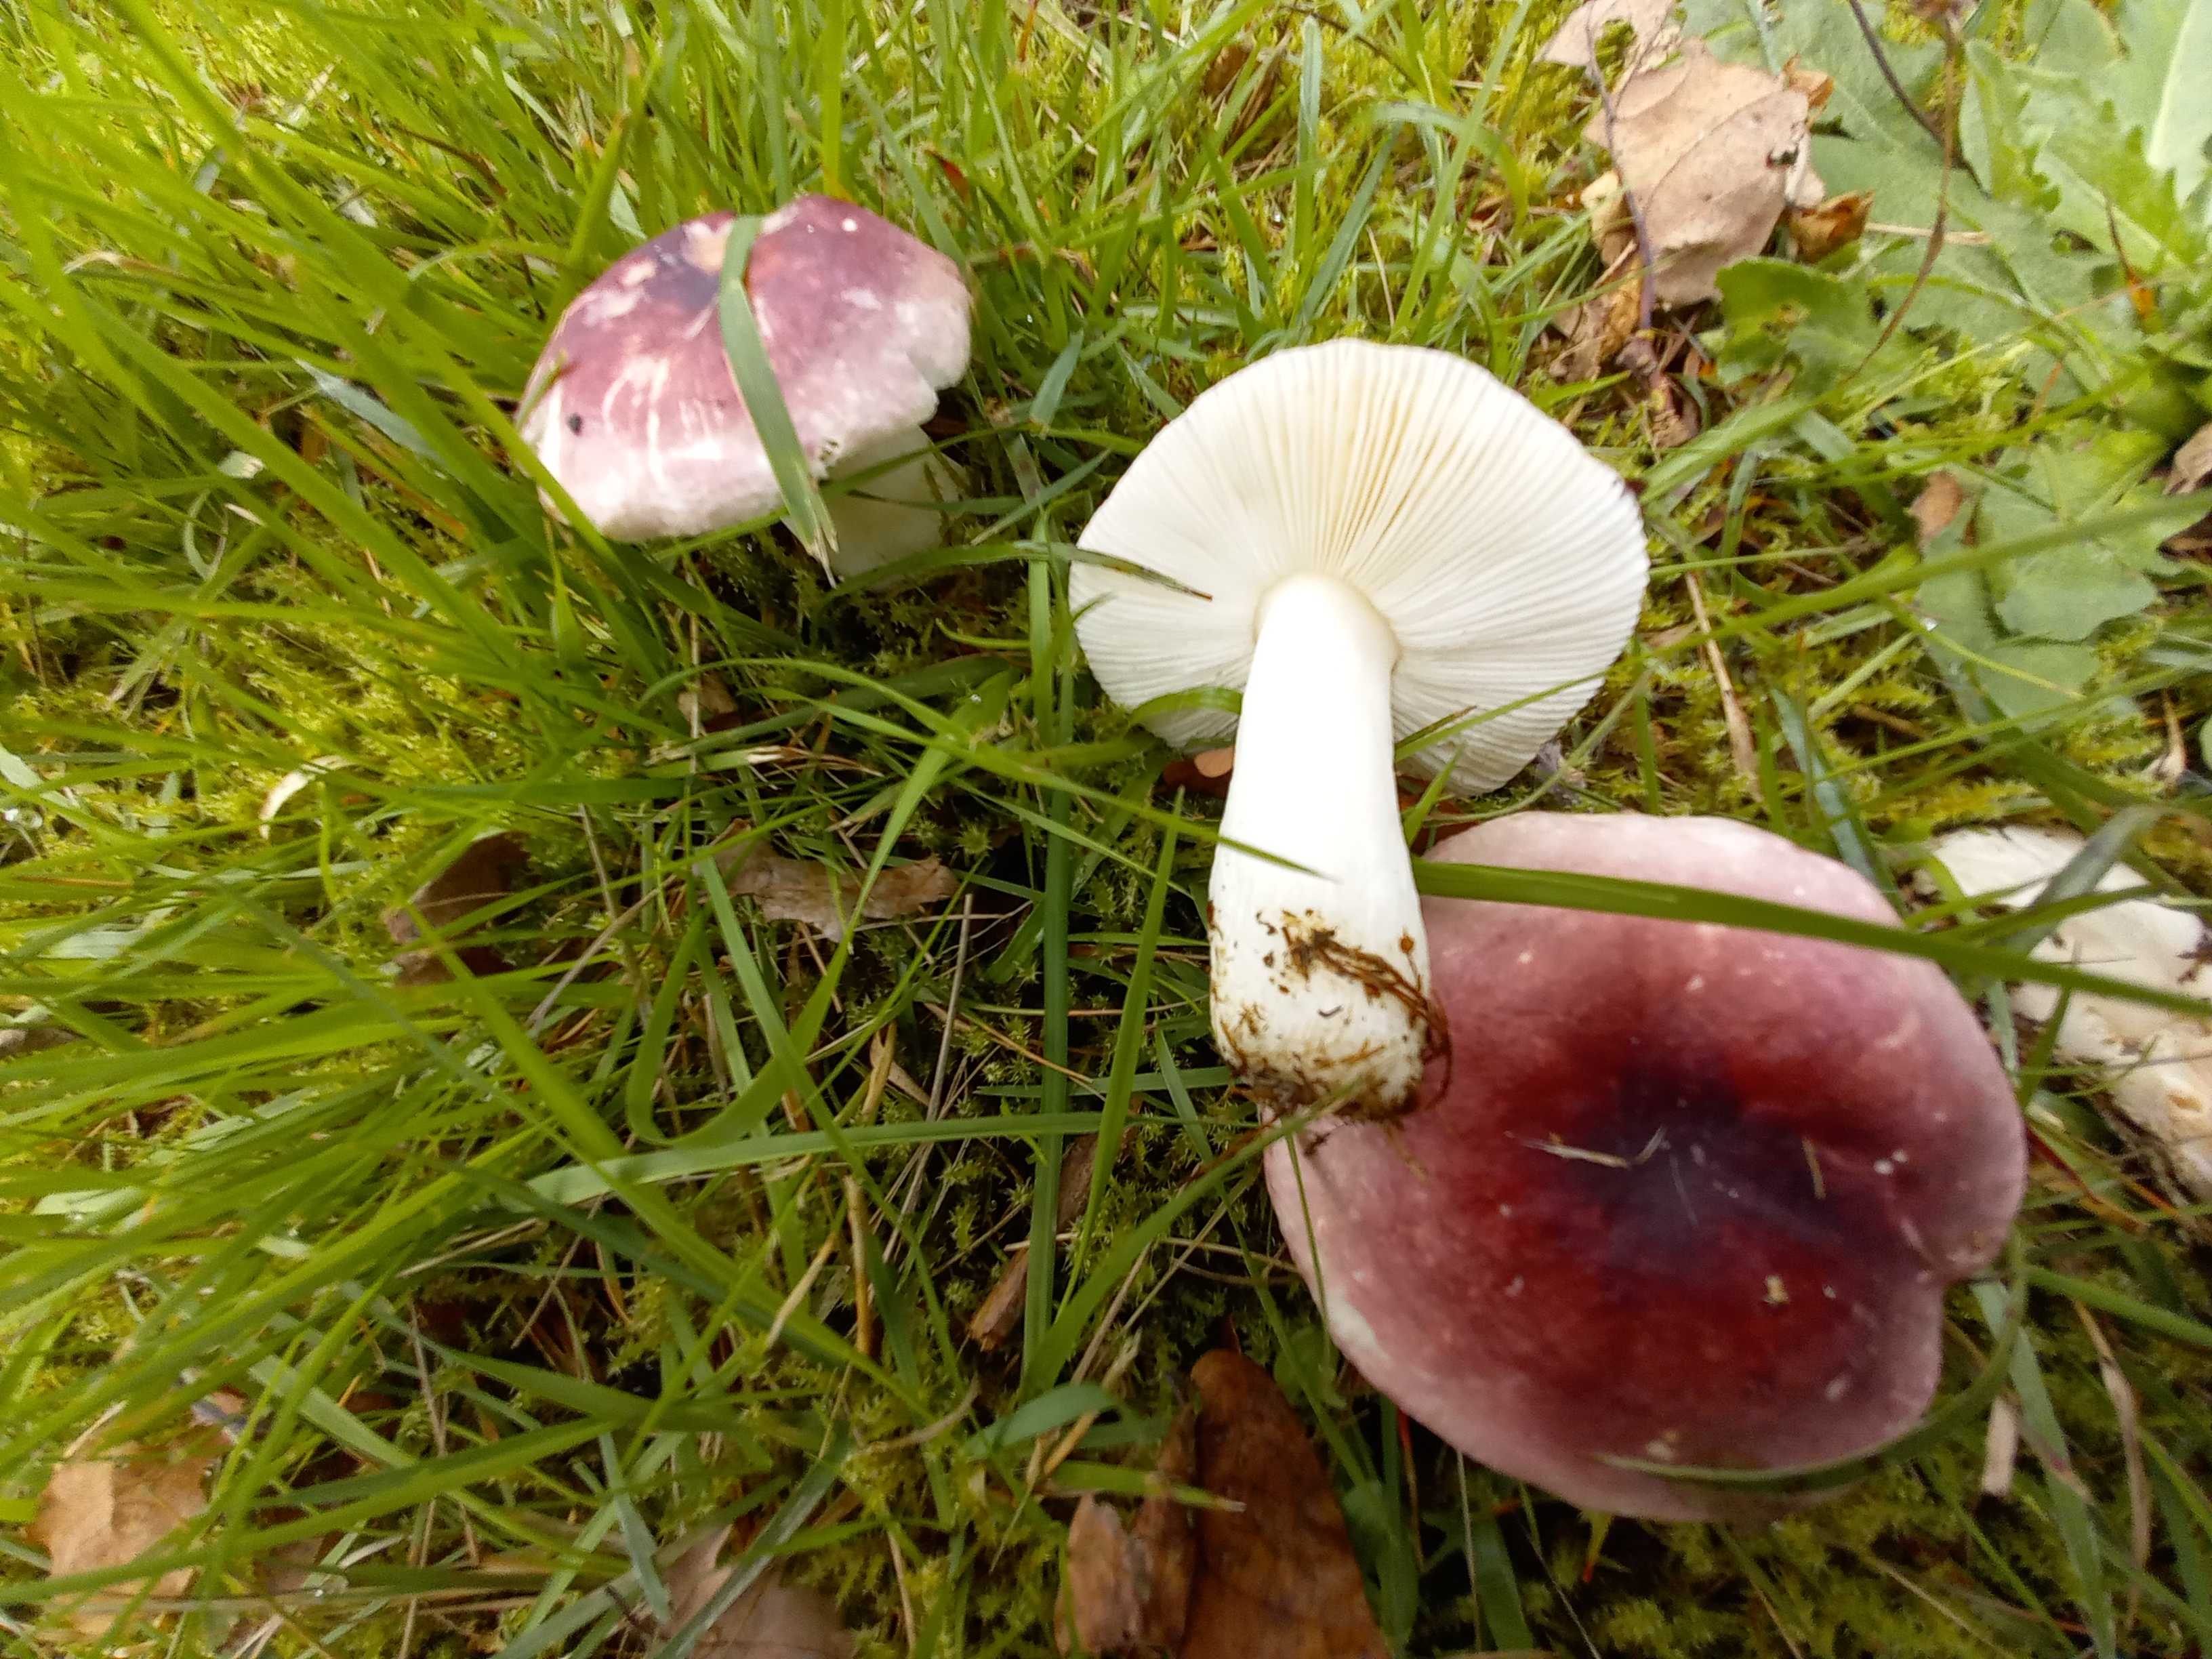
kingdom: Fungi
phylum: Basidiomycota
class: Agaricomycetes
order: Russulales
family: Russulaceae
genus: Russula
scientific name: Russula fragilis
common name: savbladet skørhat
